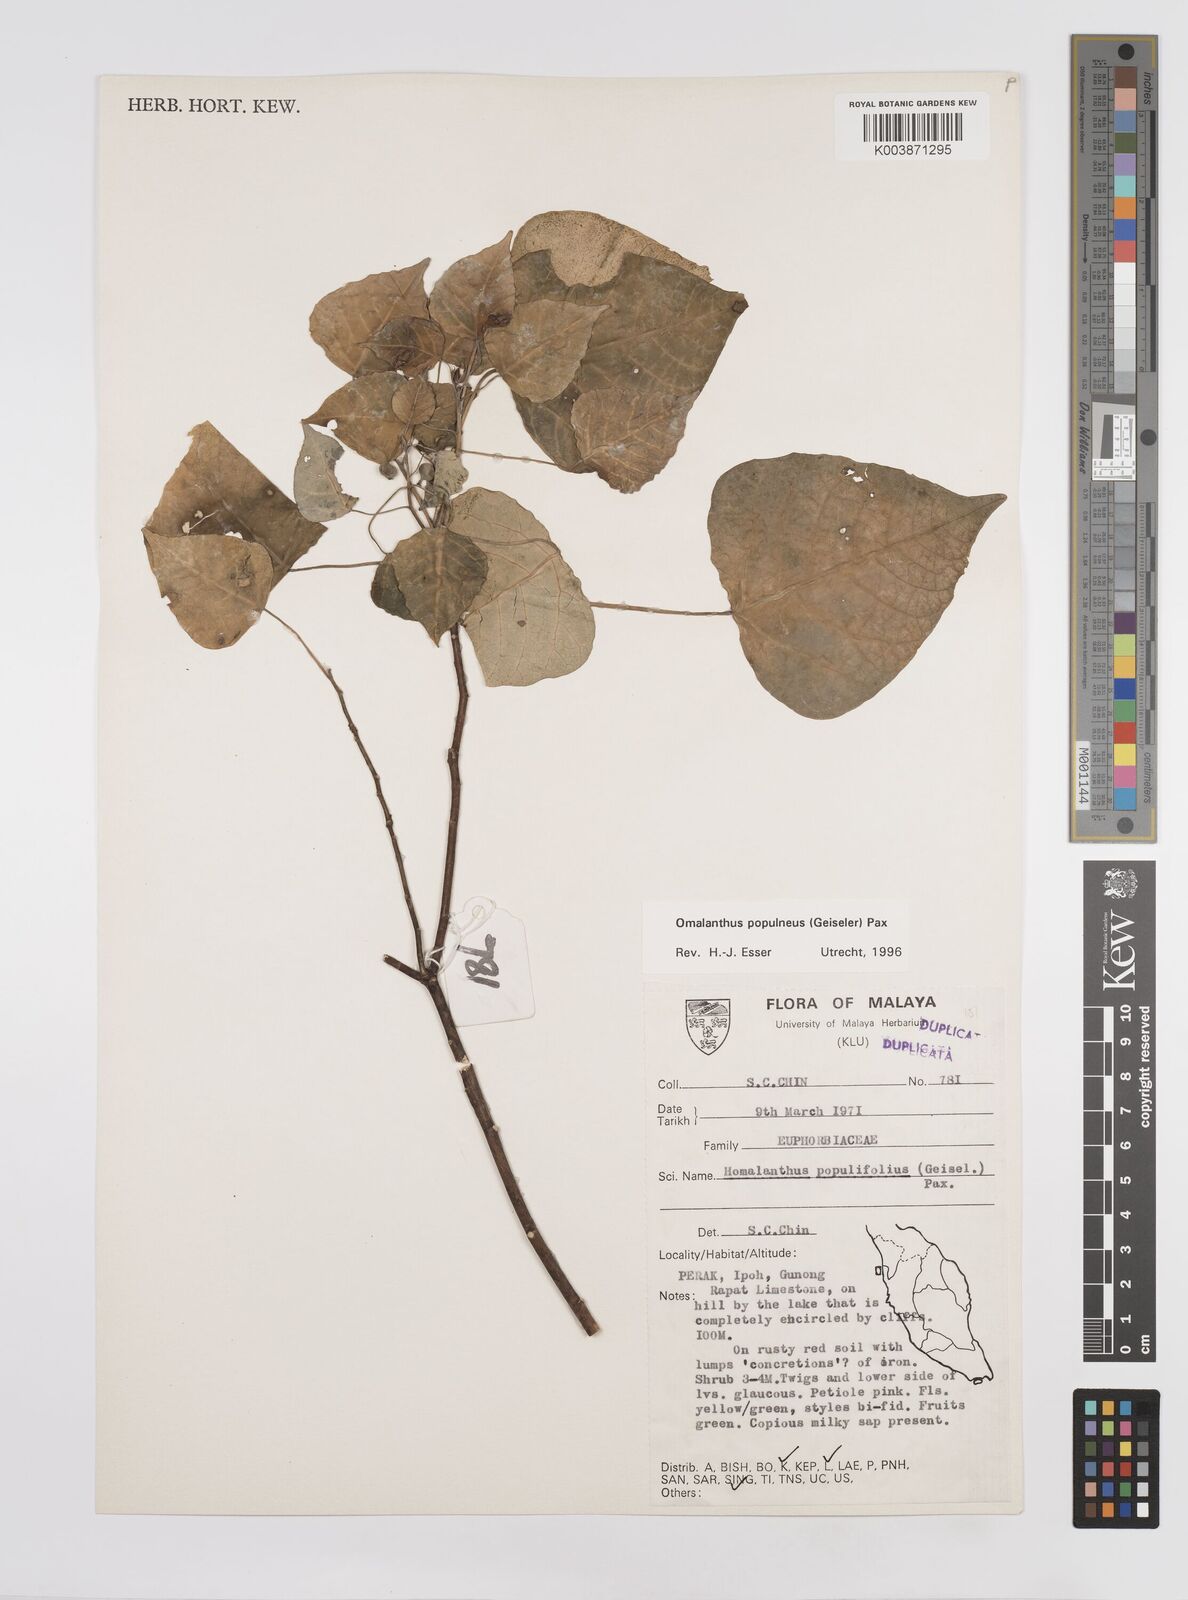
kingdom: Plantae
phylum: Tracheophyta
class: Magnoliopsida
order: Malpighiales
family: Euphorbiaceae
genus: Homalanthus
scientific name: Homalanthus populneus
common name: Spurge
